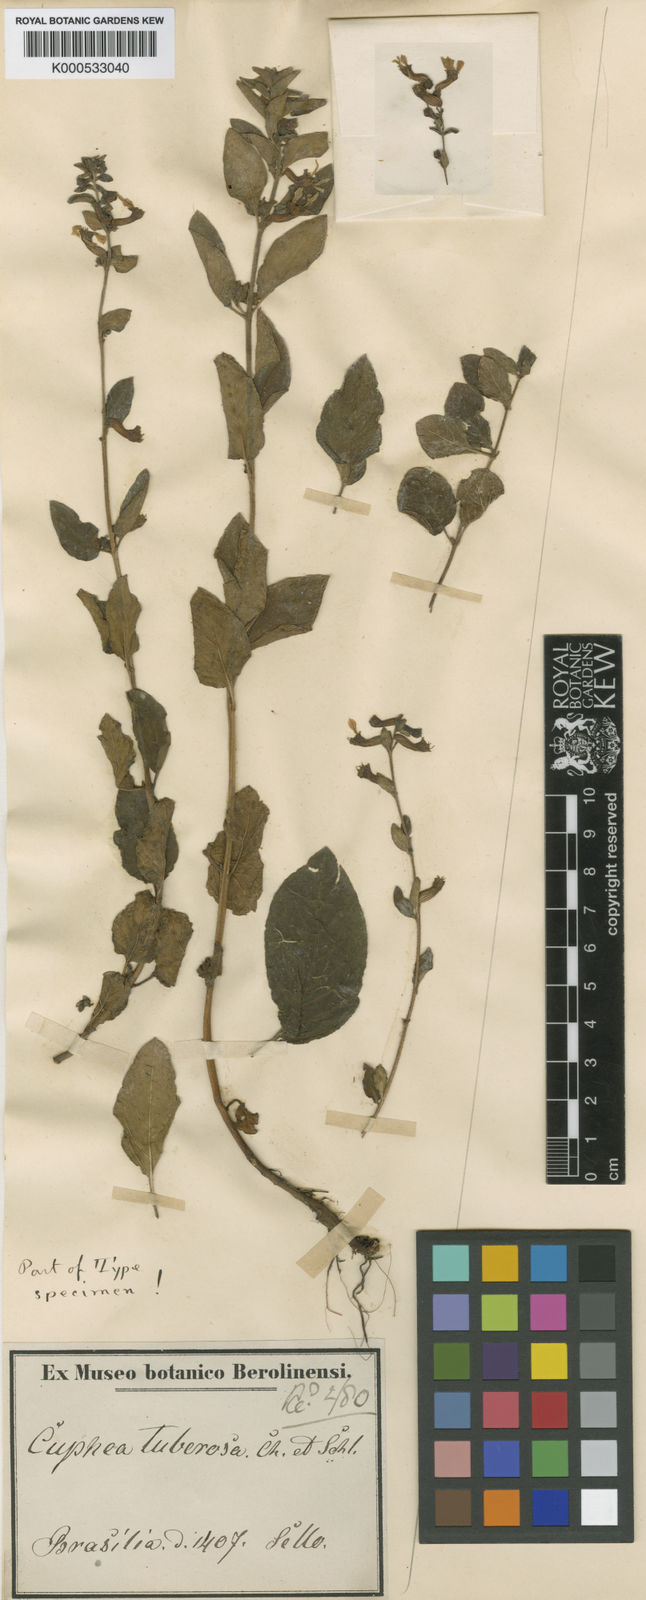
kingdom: Plantae
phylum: Tracheophyta
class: Magnoliopsida
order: Myrtales
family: Lythraceae
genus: Cuphea
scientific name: Cuphea tuberosa
